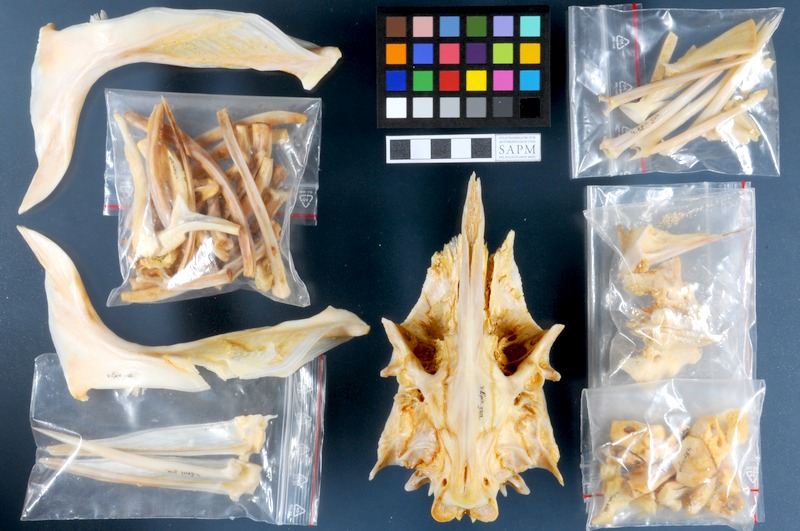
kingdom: Animalia
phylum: Chordata
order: Perciformes
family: Serranidae
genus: Epinephelus
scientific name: Epinephelus marginatus
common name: Dusky grouper
